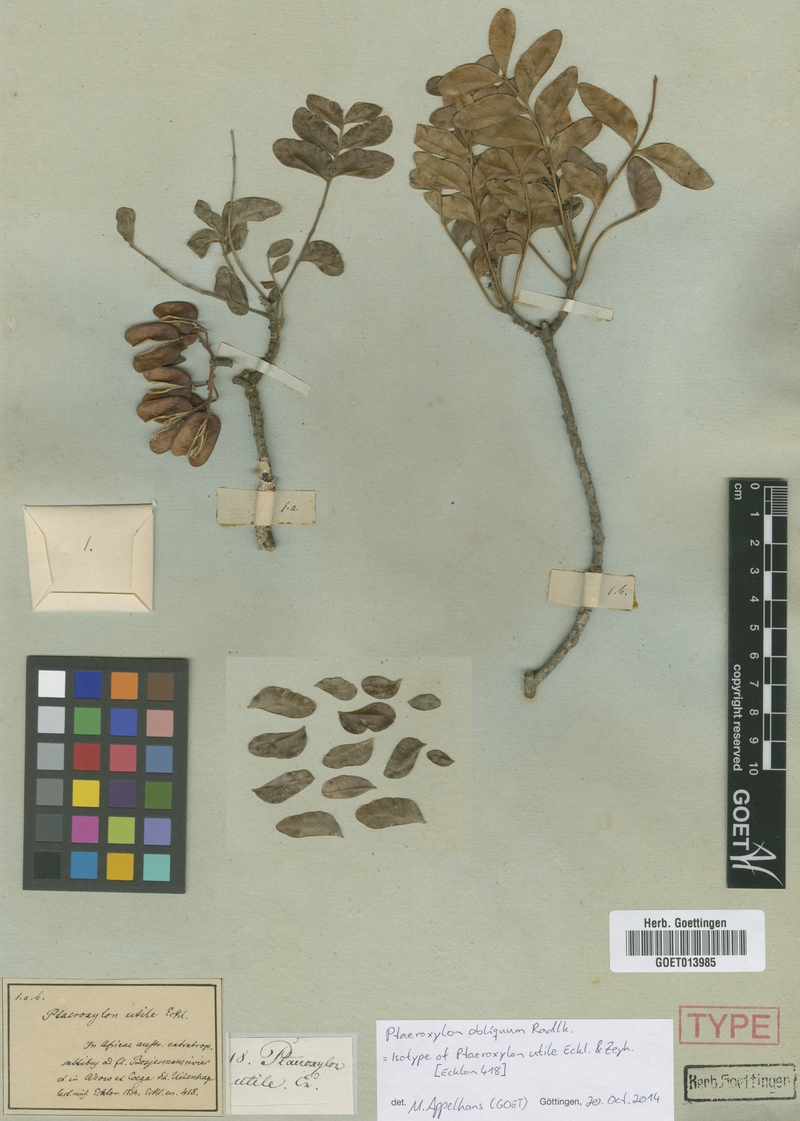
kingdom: Plantae
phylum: Tracheophyta
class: Magnoliopsida
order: Sapindales
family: Rutaceae
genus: Ptaeroxylon
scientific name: Ptaeroxylon obliquum
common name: Sneezewood
